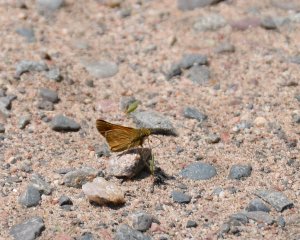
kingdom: Animalia
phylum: Arthropoda
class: Insecta
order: Lepidoptera
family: Hesperiidae
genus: Hesperia
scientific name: Hesperia sassacus
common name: Sassacus Skipper
